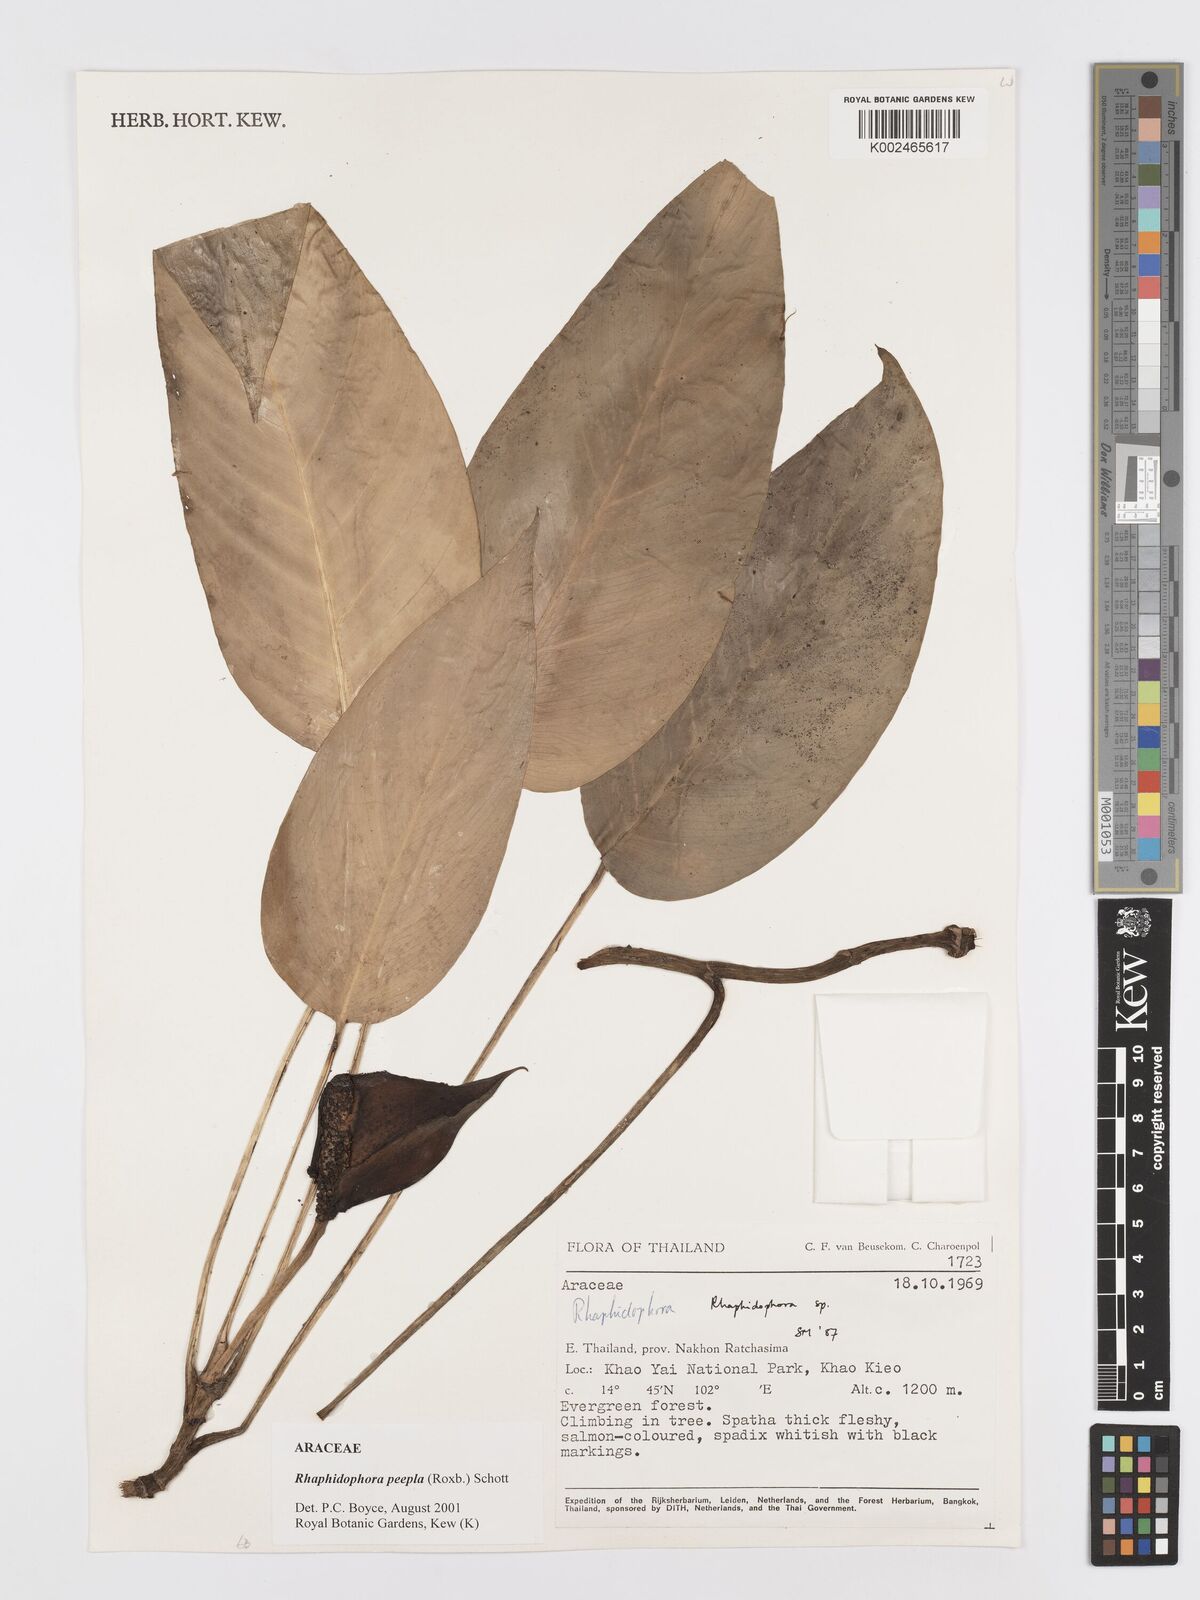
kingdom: Plantae
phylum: Tracheophyta
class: Liliopsida
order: Alismatales
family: Araceae
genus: Rhaphidophora
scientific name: Rhaphidophora peepla
